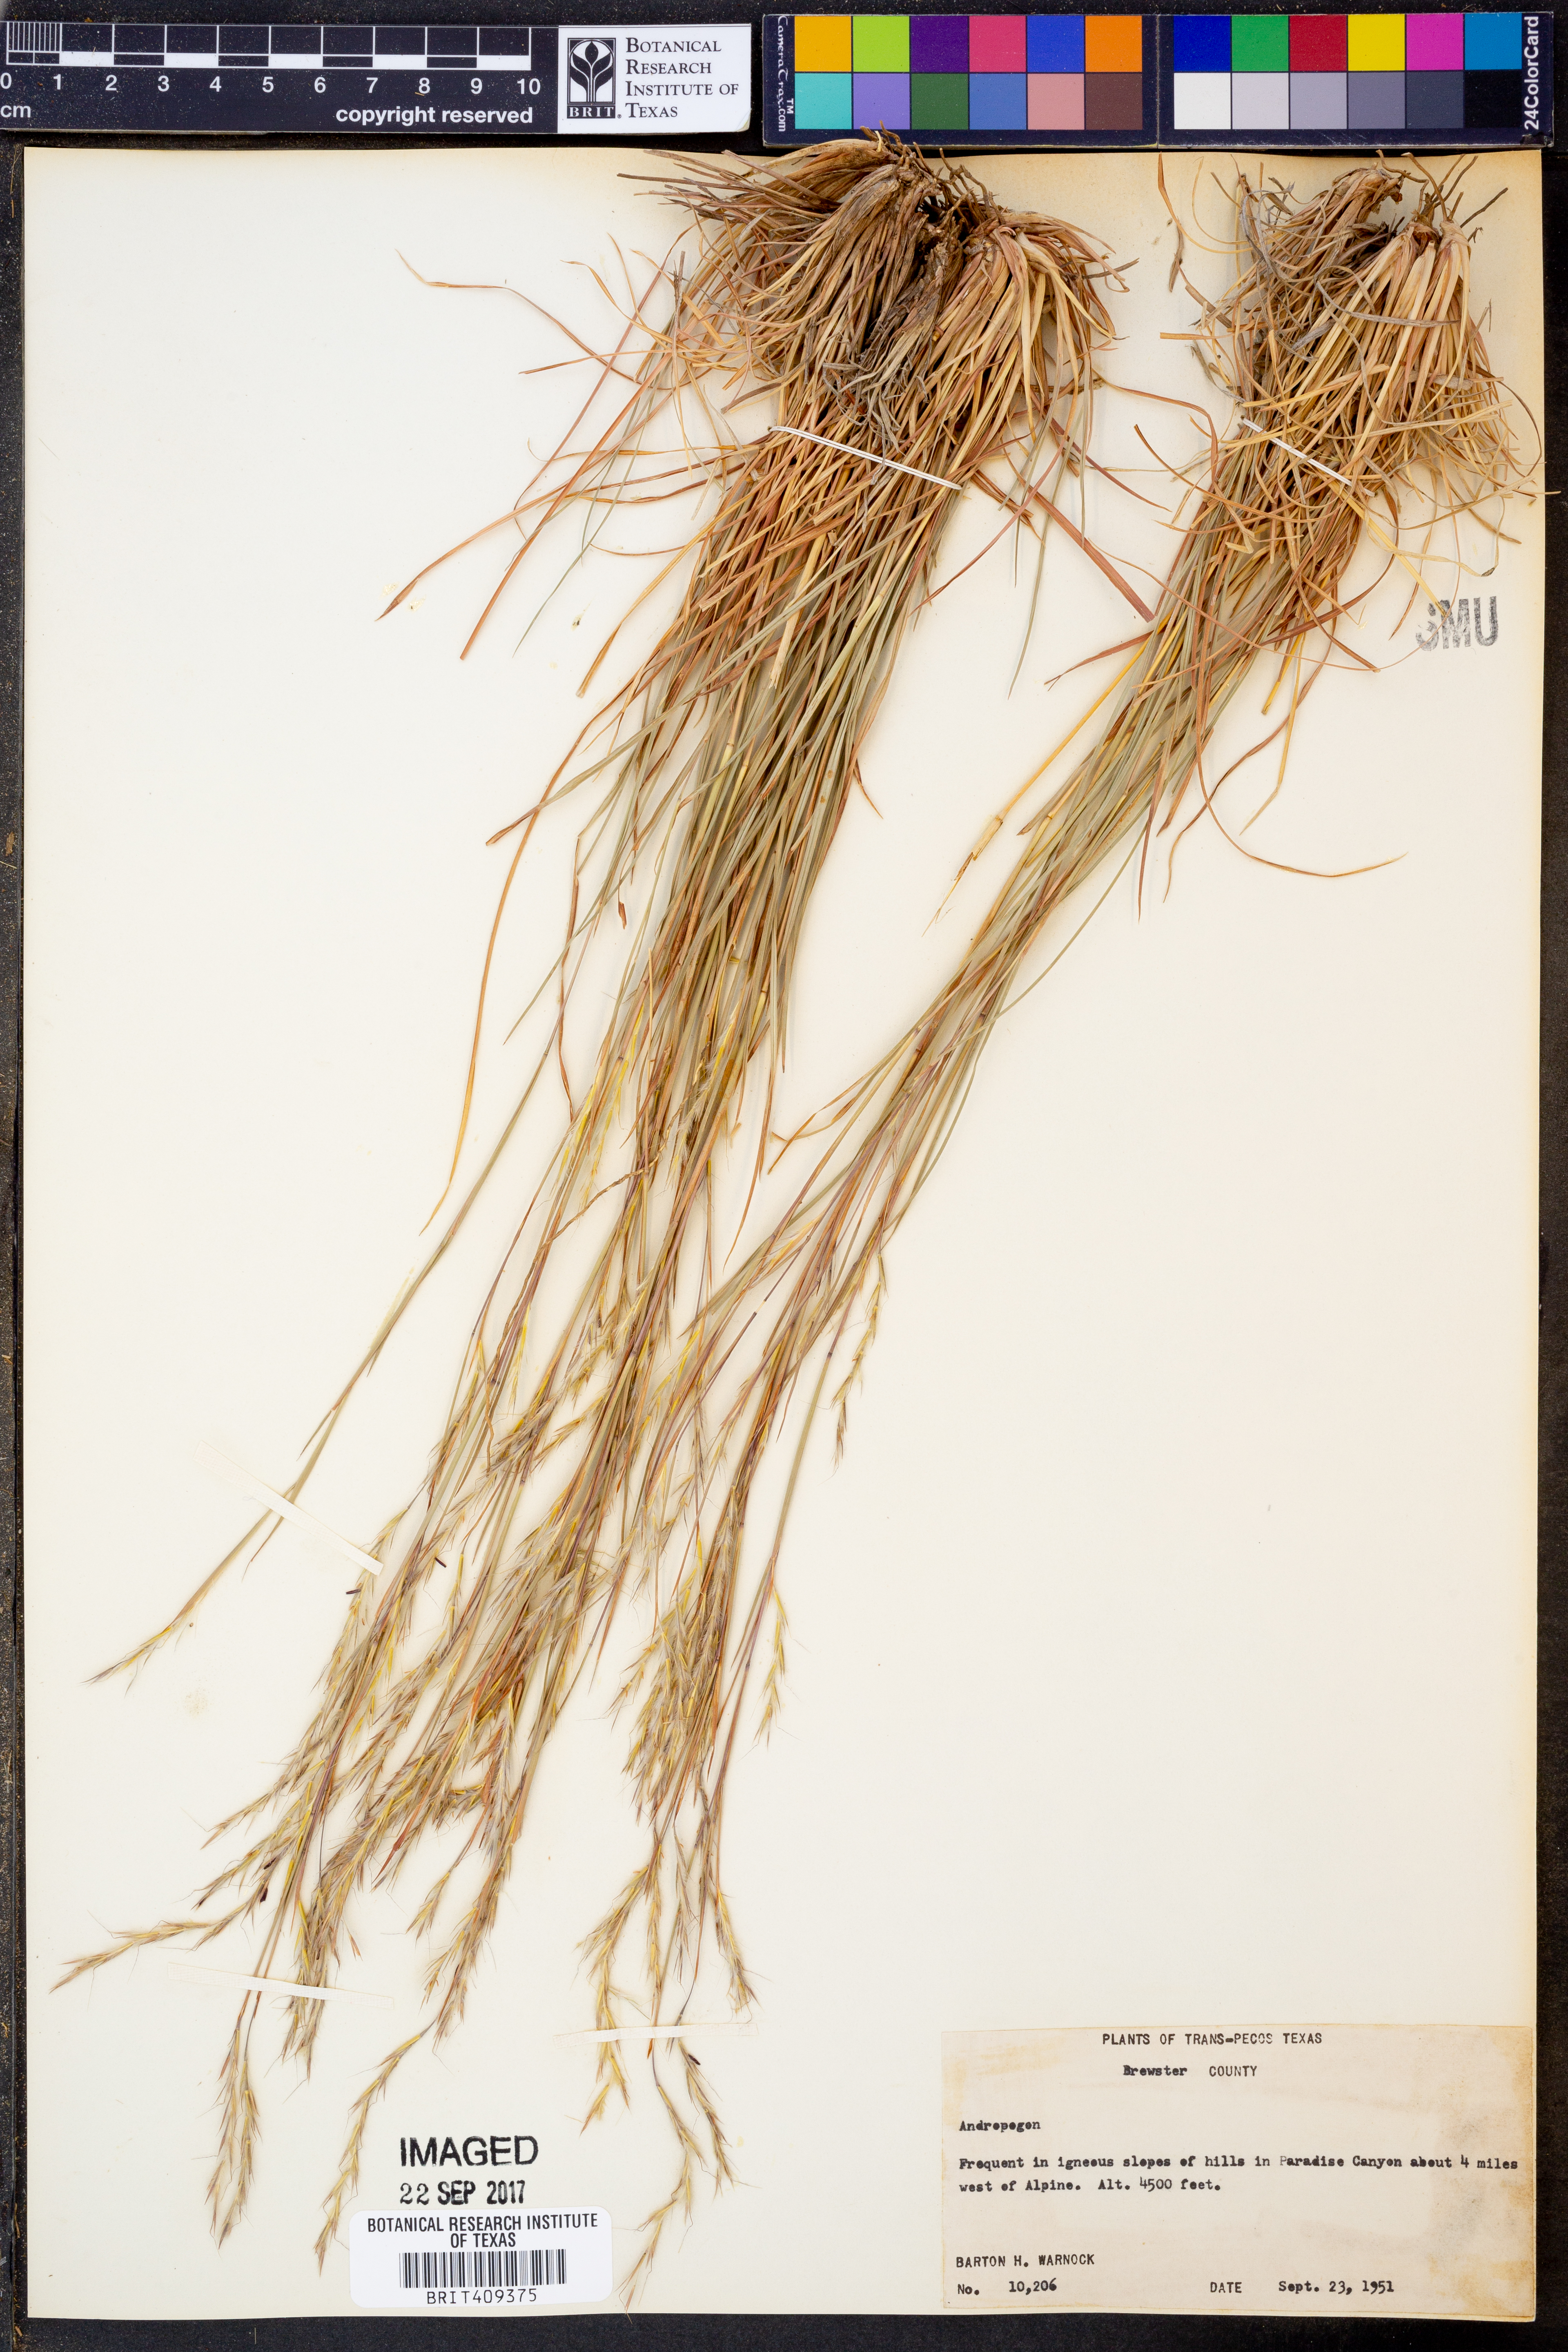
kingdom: Plantae
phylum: Tracheophyta
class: Liliopsida
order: Poales
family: Poaceae
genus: Andropogon
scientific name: Andropogon
